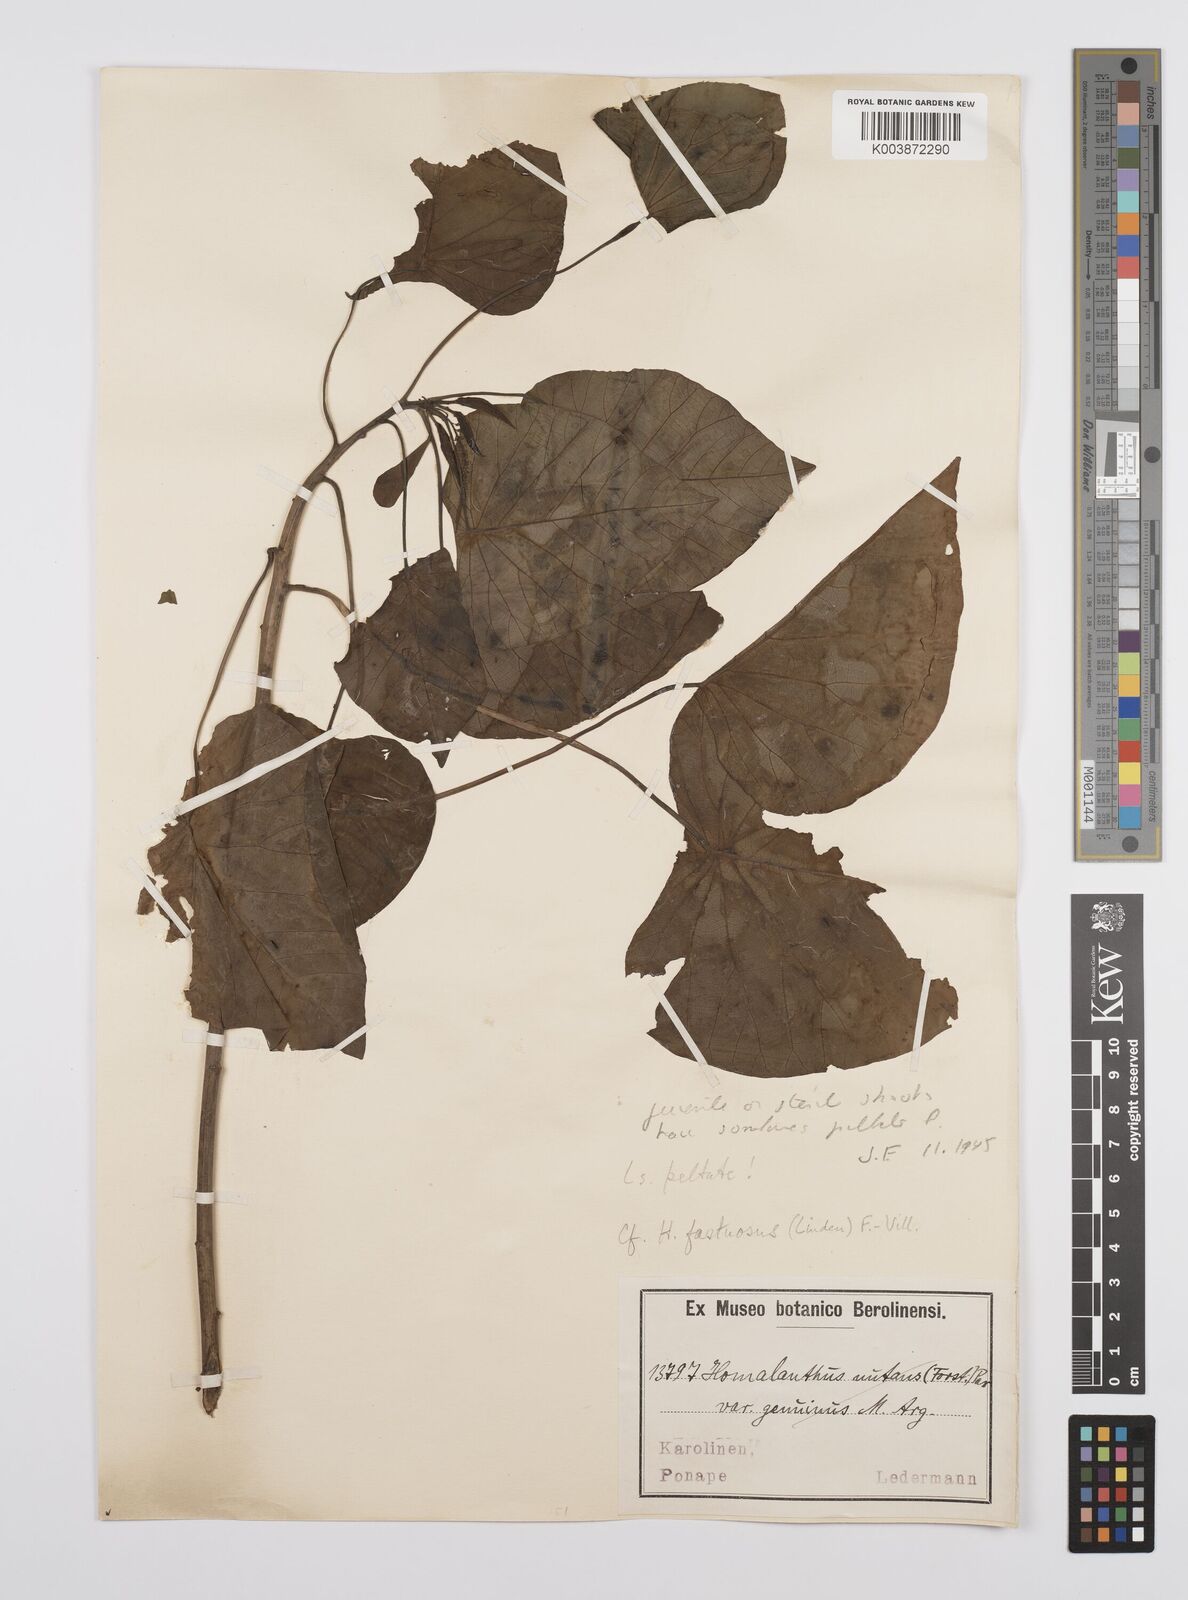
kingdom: Plantae
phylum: Tracheophyta
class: Magnoliopsida
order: Malpighiales
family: Euphorbiaceae
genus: Homalanthus
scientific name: Homalanthus fastuosus
